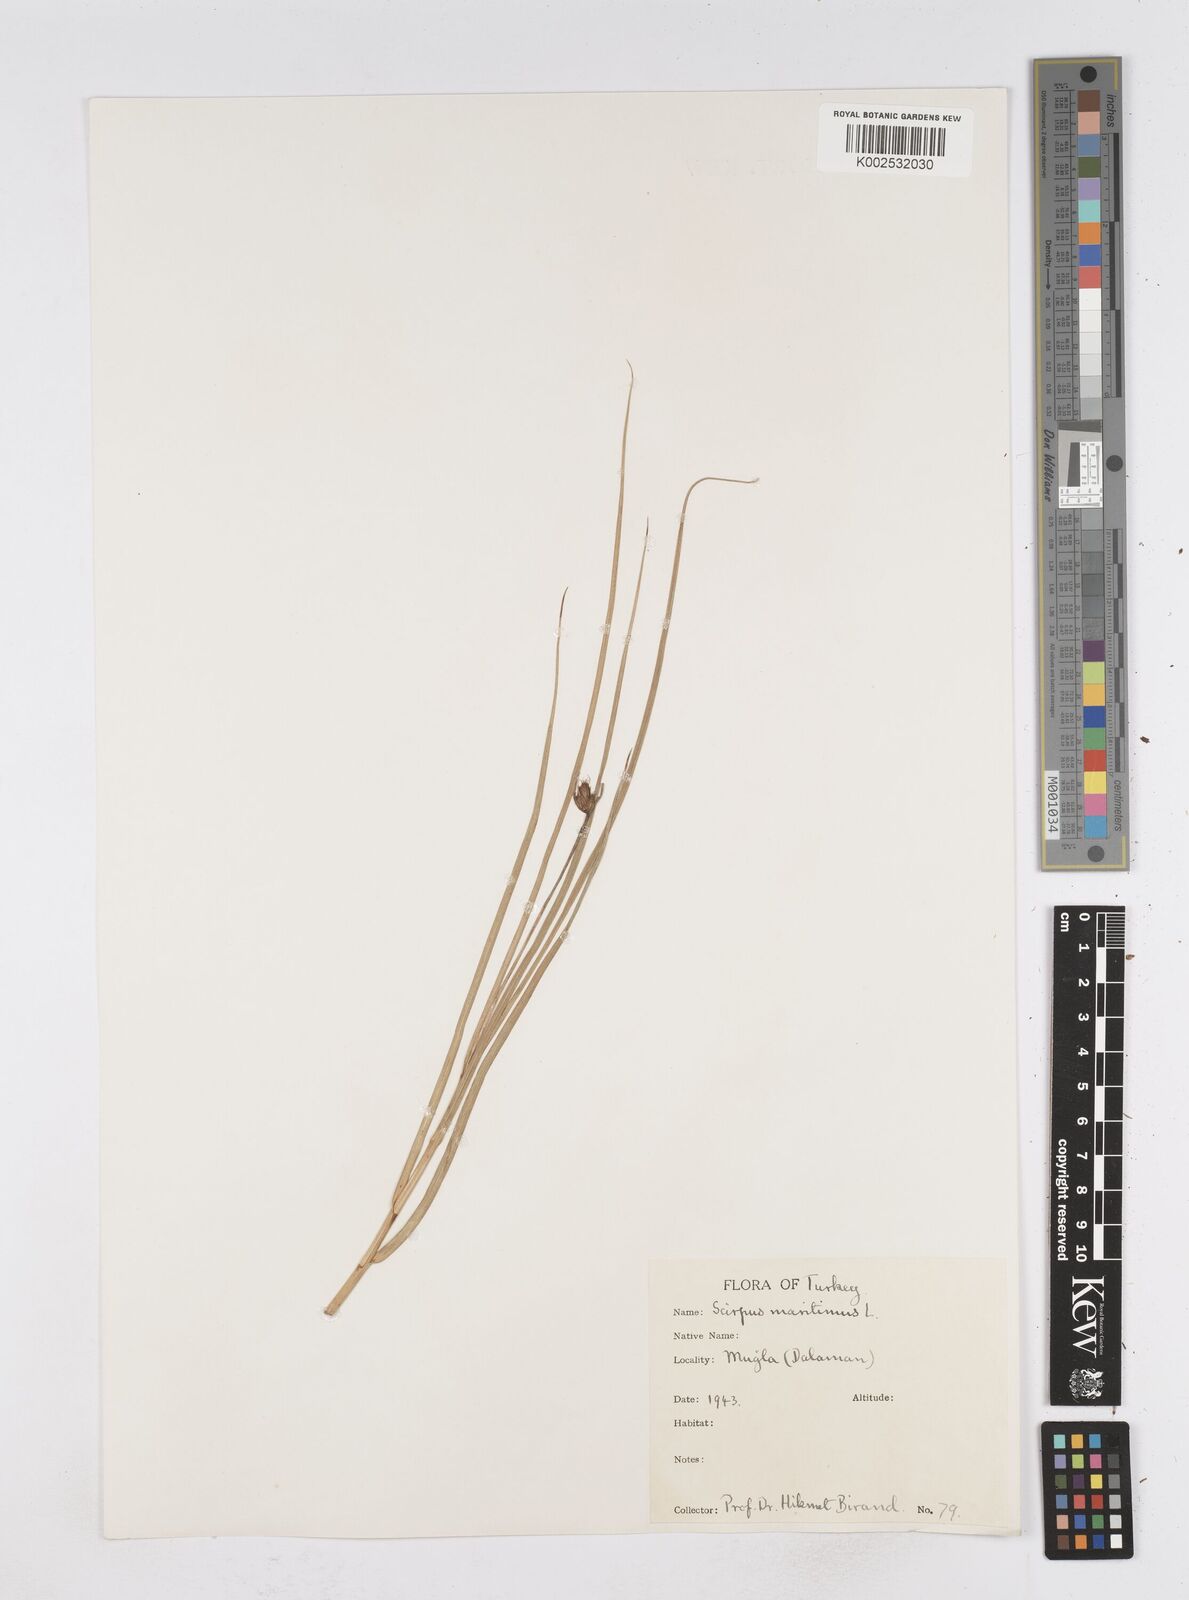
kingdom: Plantae
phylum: Tracheophyta
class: Liliopsida
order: Poales
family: Cyperaceae
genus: Bolboschoenus
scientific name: Bolboschoenus maritimus
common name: Sea club-rush
